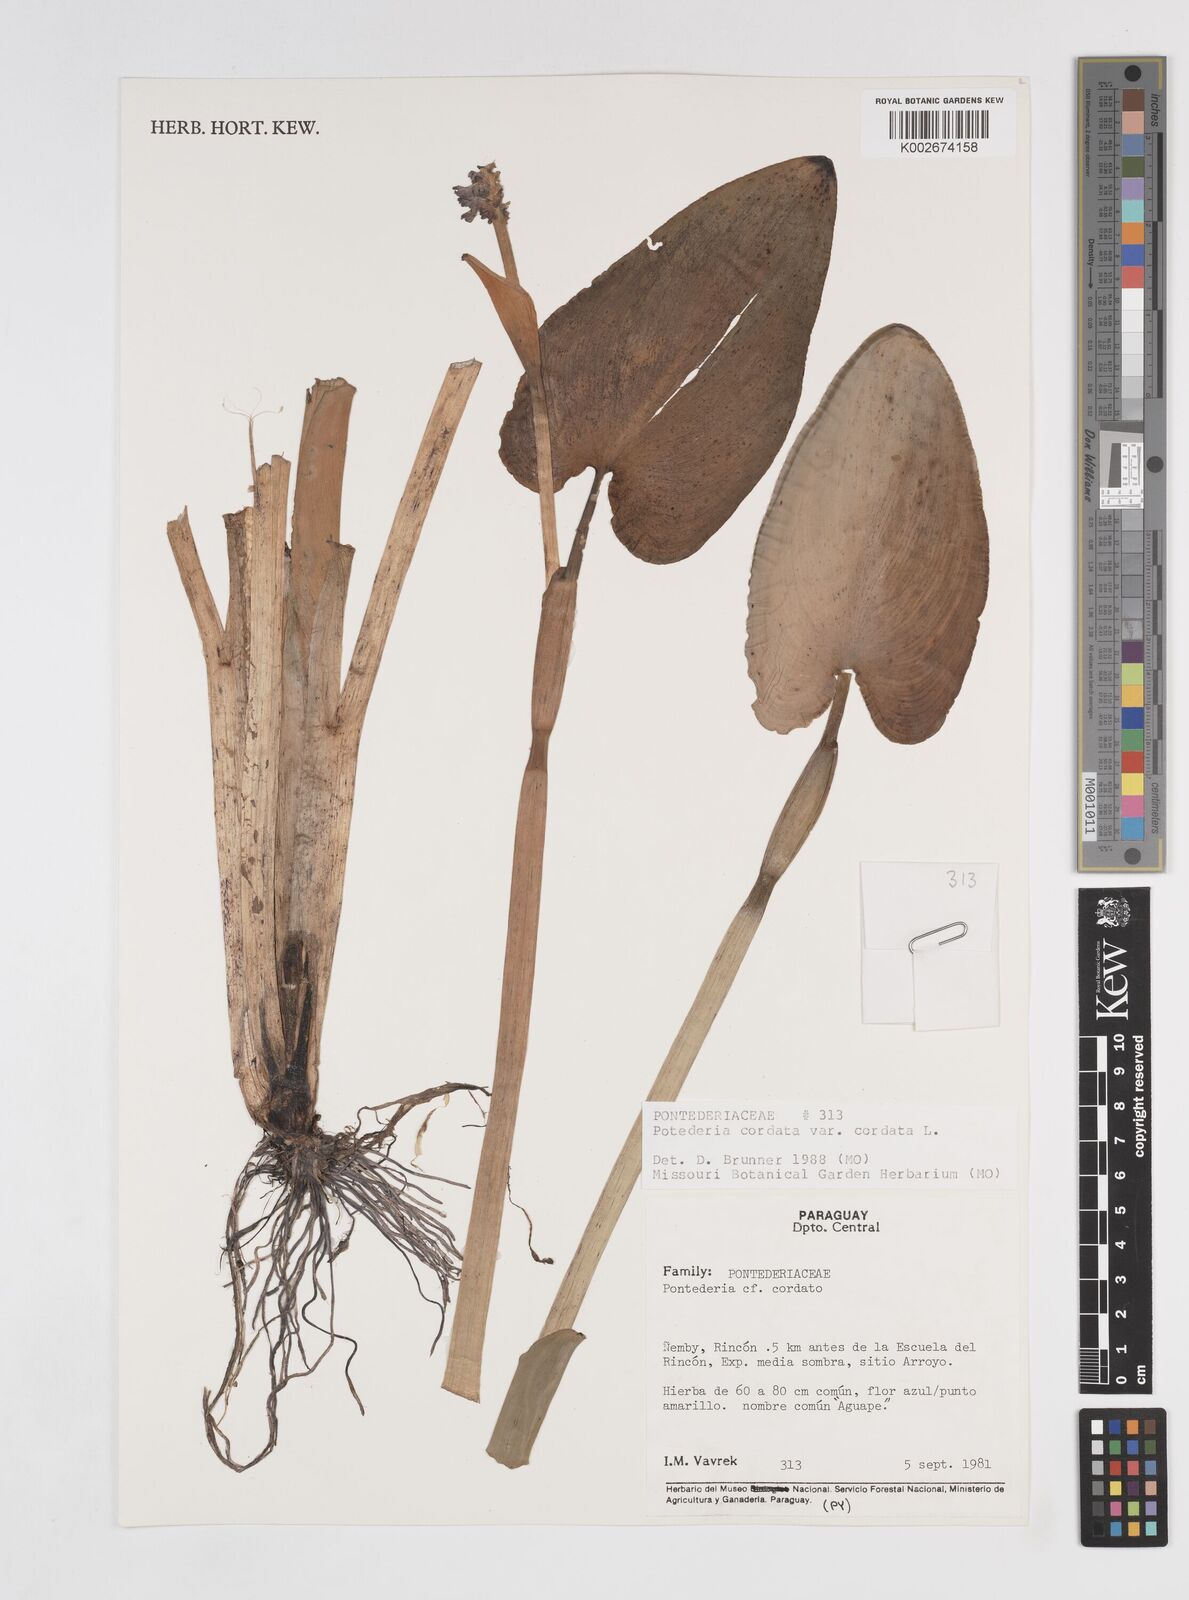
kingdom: Plantae
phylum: Tracheophyta
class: Liliopsida
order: Commelinales
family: Pontederiaceae
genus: Pontederia
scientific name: Pontederia
